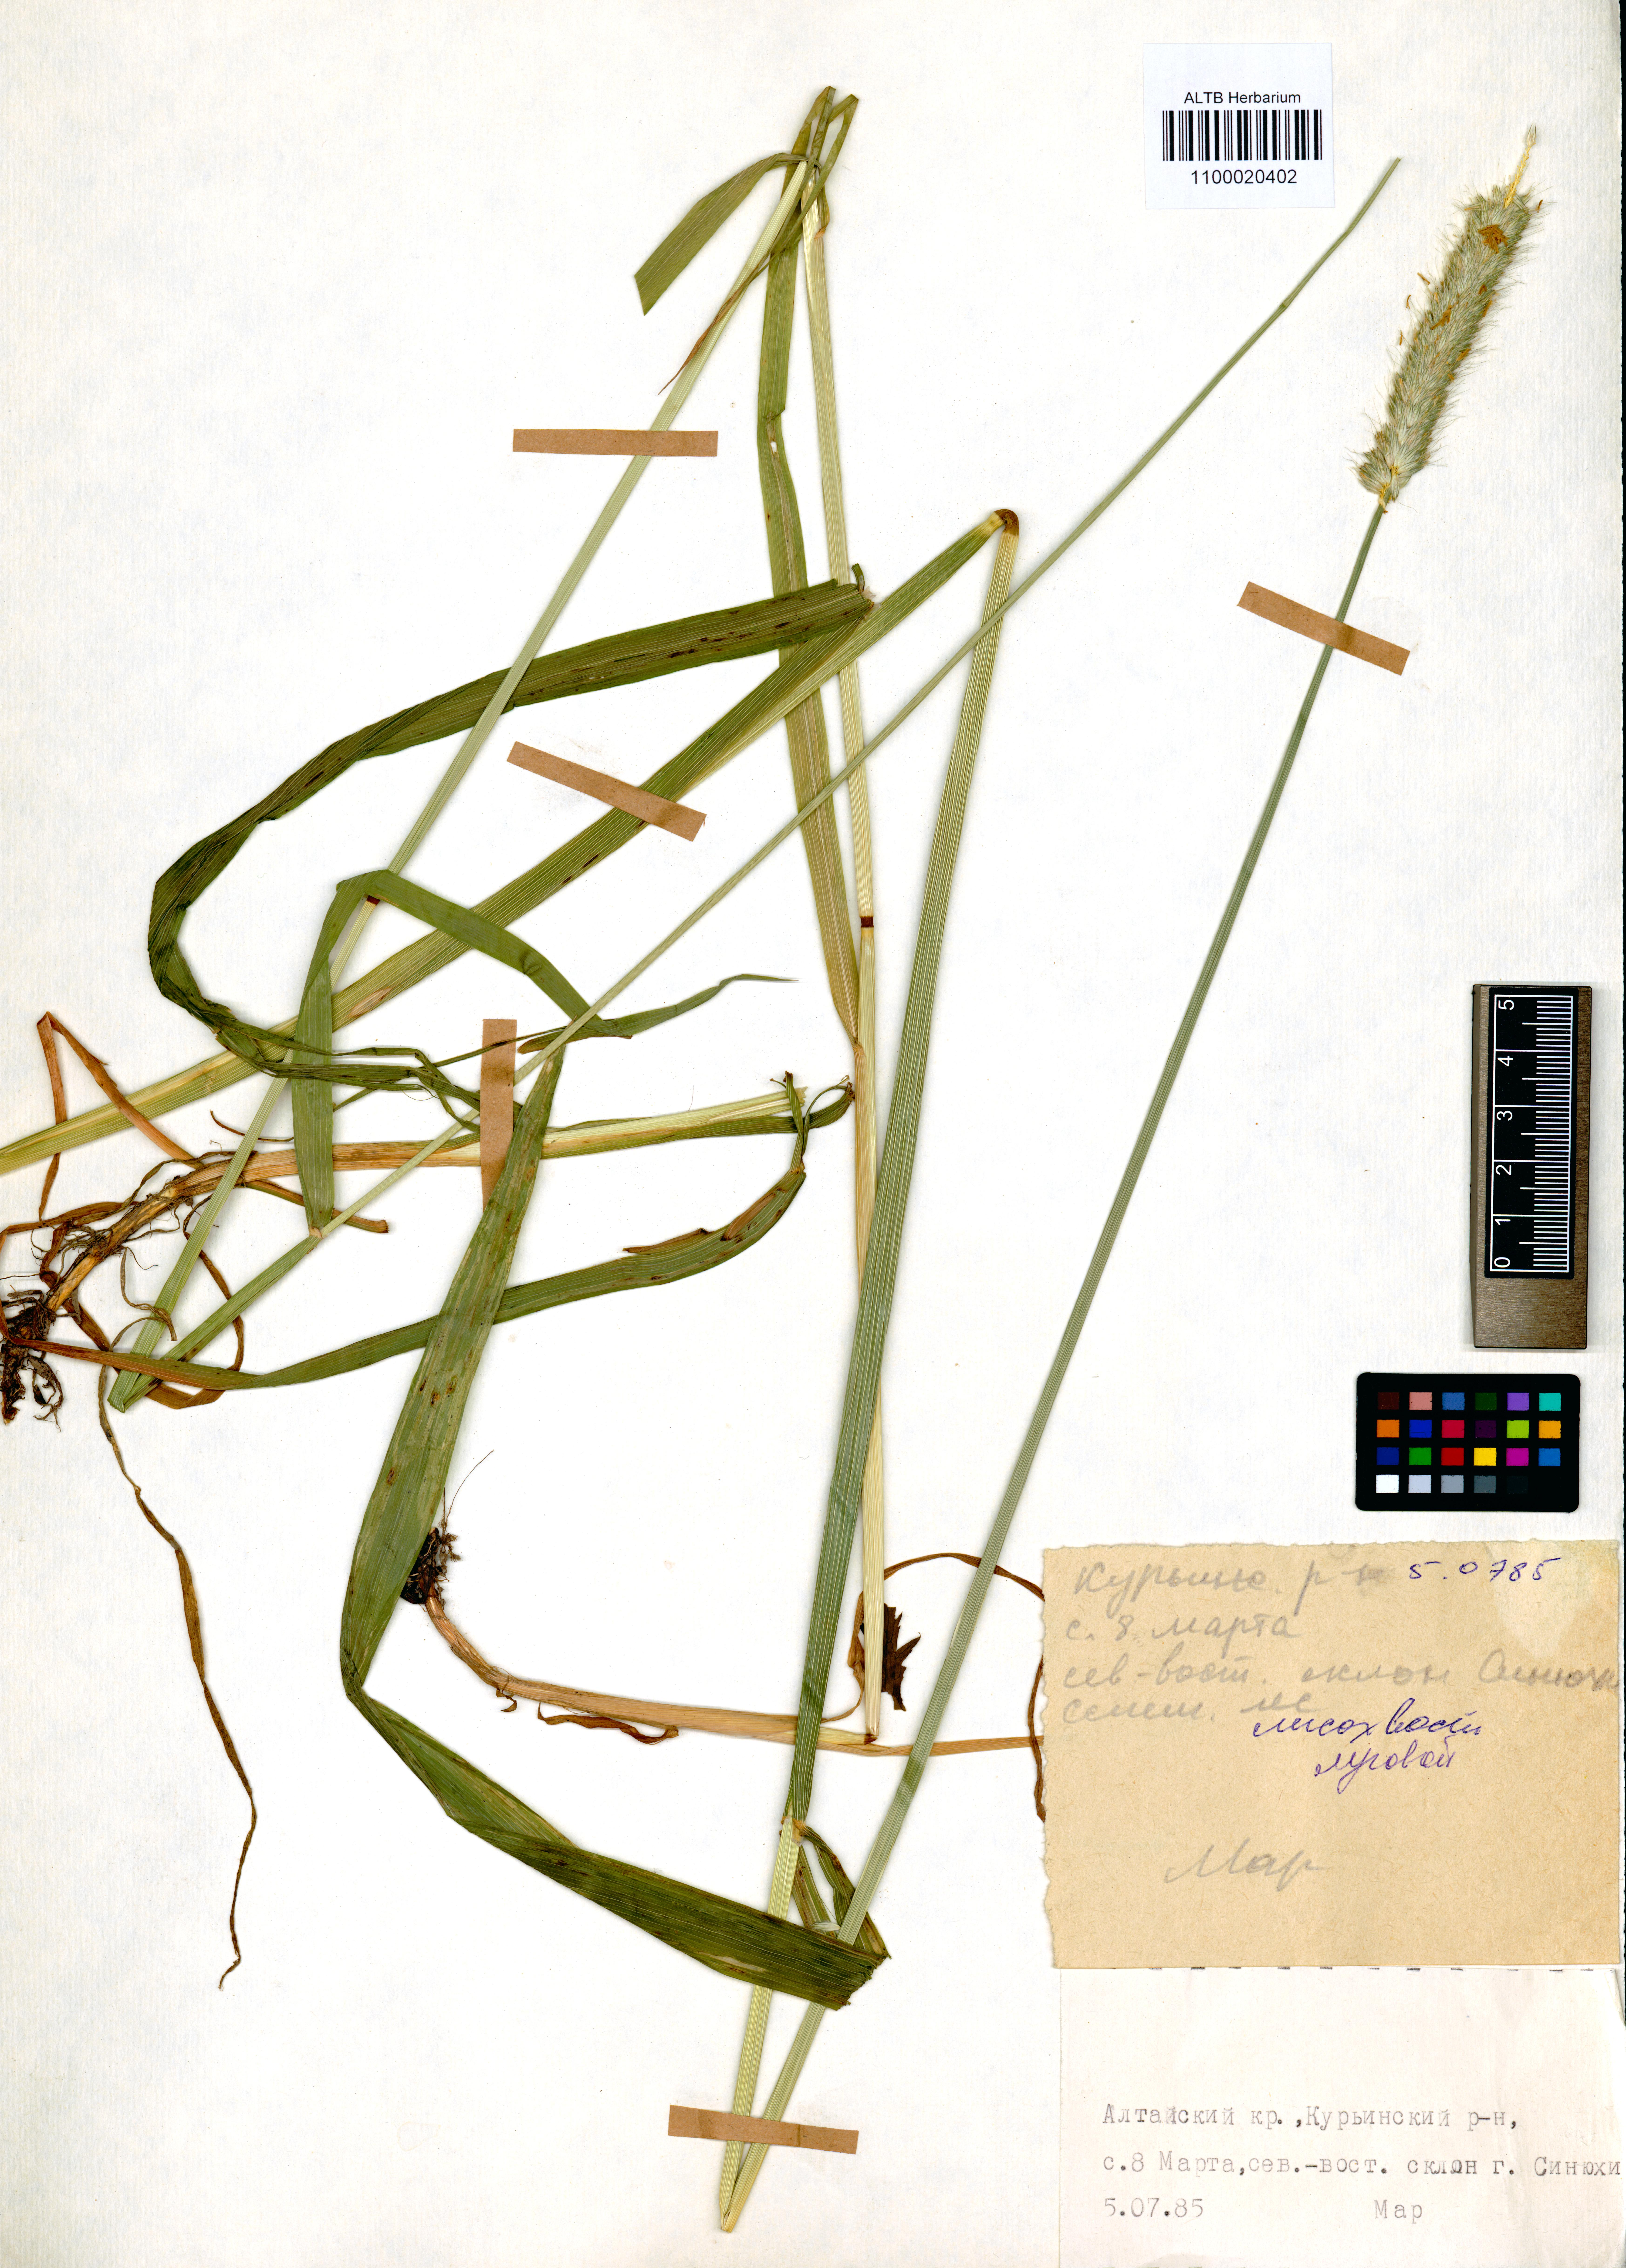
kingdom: Plantae
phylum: Tracheophyta
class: Liliopsida
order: Poales
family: Poaceae
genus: Alopecurus
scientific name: Alopecurus pratensis
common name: Meadow foxtail
